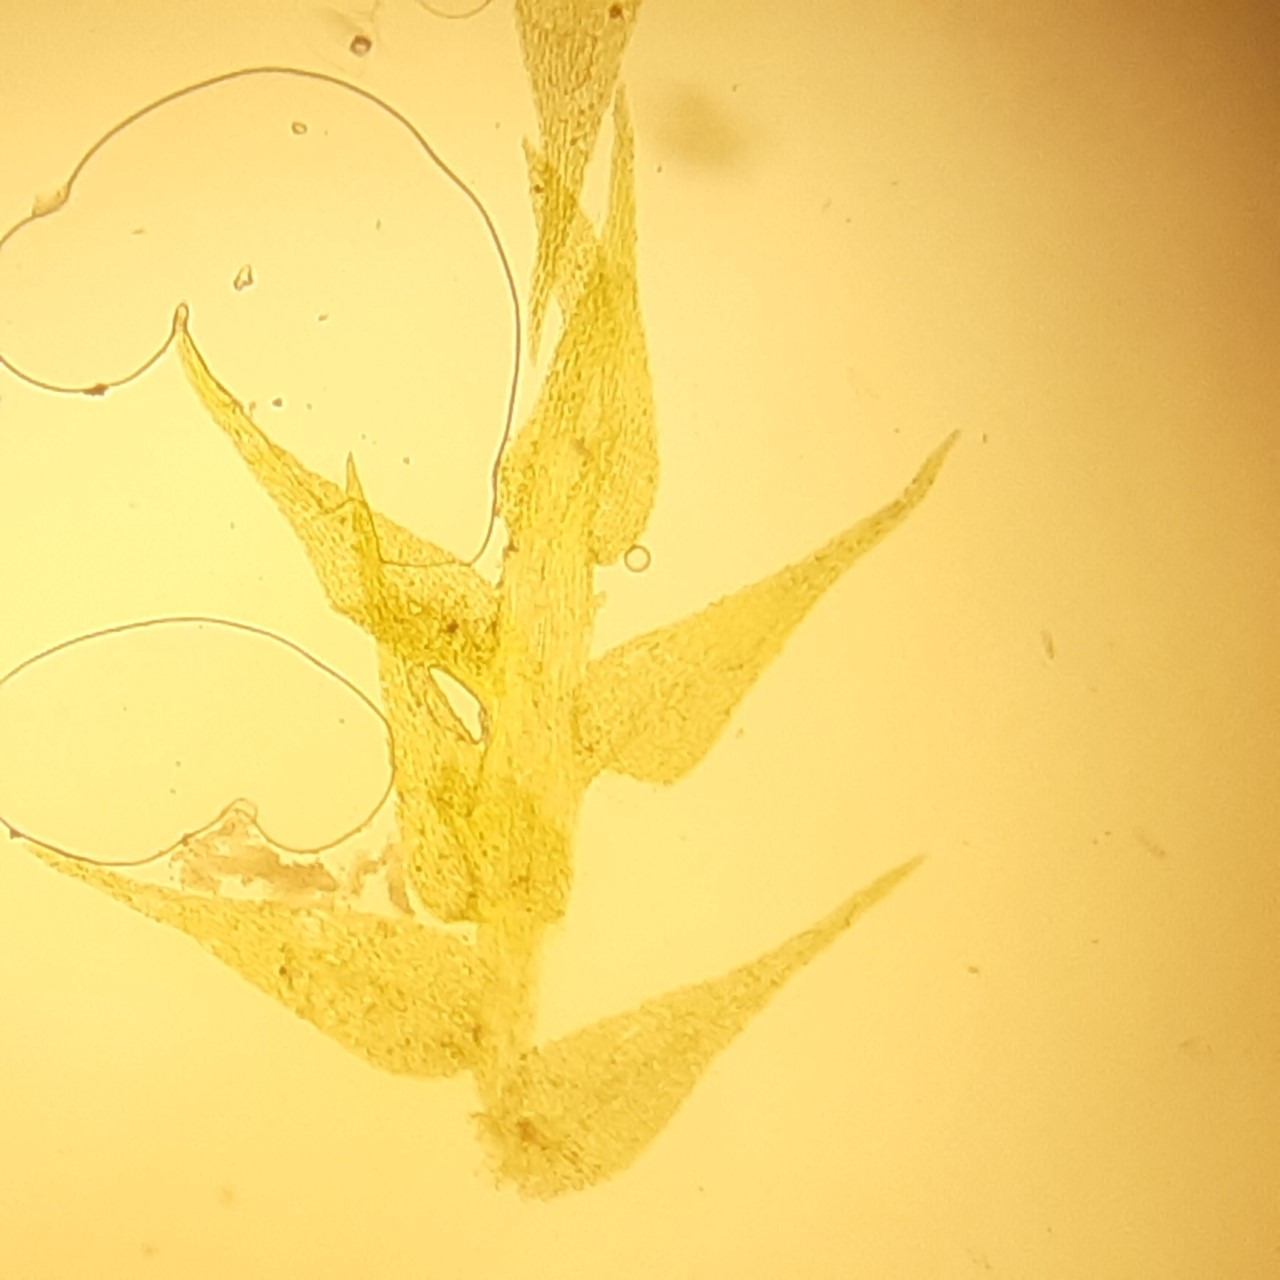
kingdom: Plantae
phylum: Bryophyta
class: Bryopsida
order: Hypnales
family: Amblystegiaceae
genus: Amblystegium
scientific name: Amblystegium serpens
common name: Almindelig krybmos
